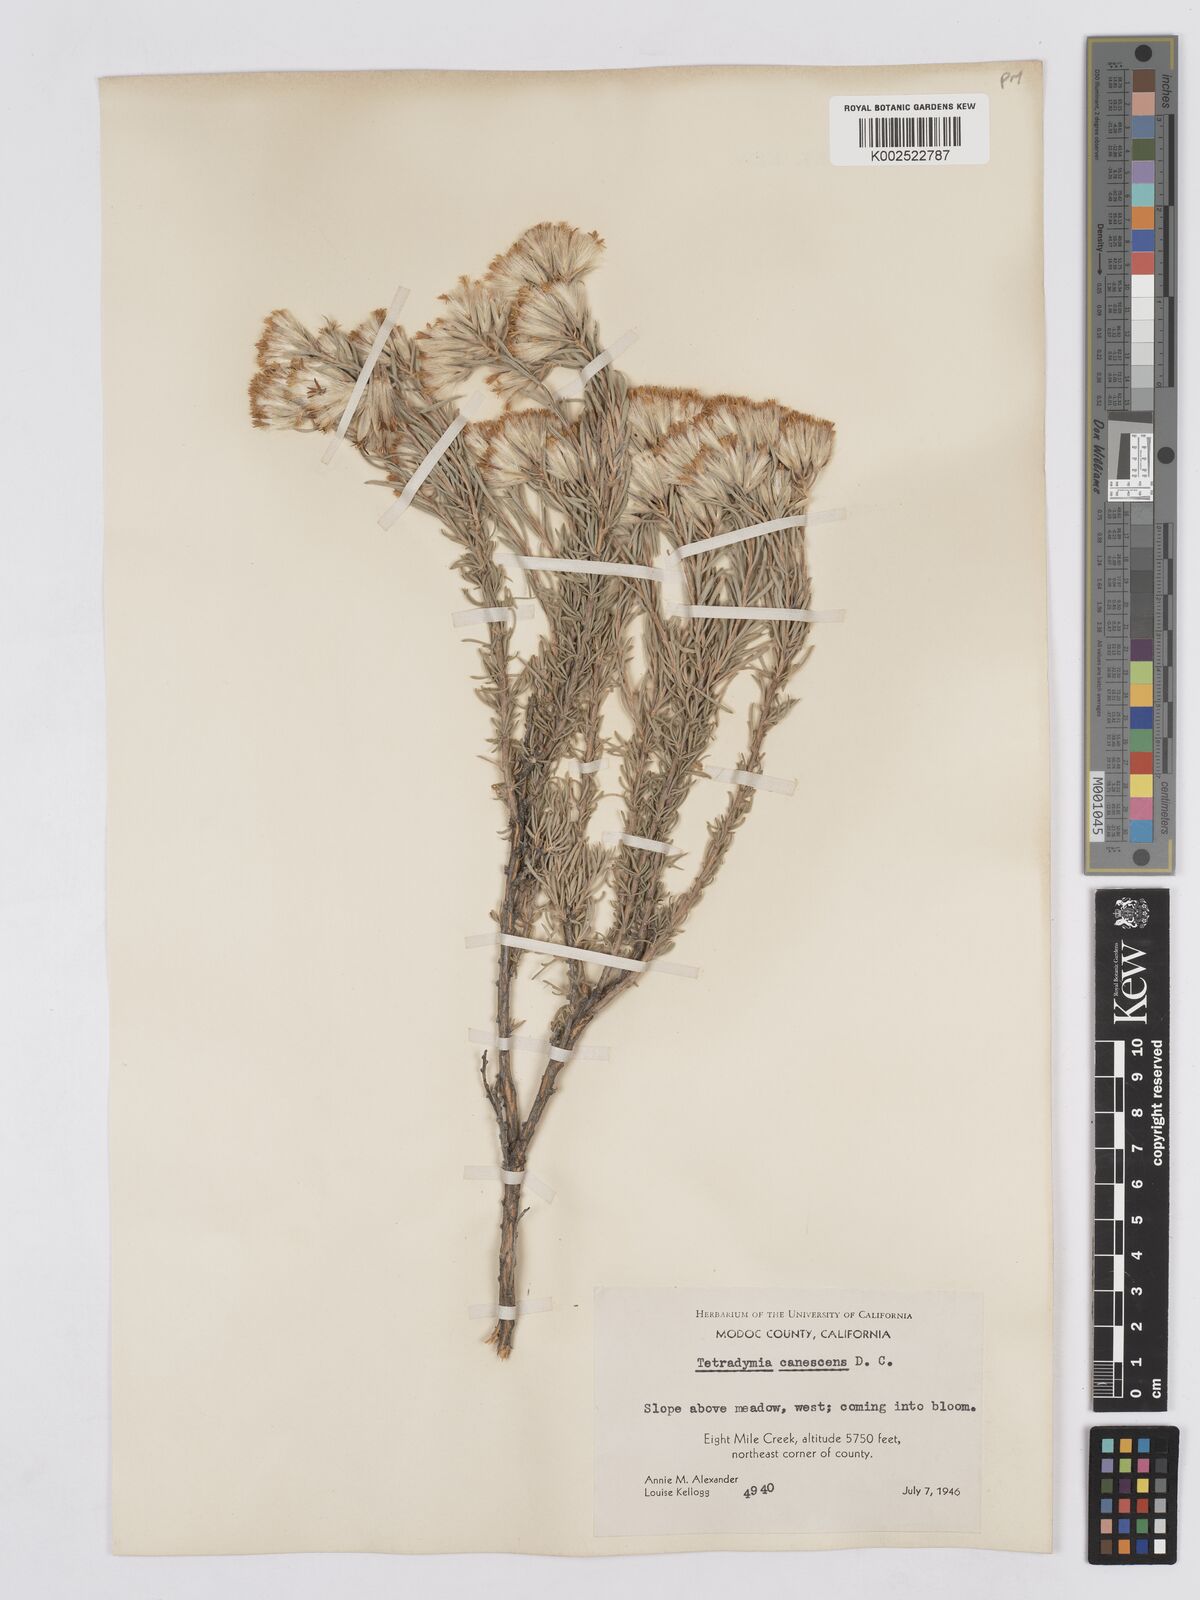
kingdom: Plantae
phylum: Tracheophyta
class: Magnoliopsida
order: Asterales
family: Asteraceae
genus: Tetradymia
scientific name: Tetradymia canescens
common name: Spineless horsebrush
